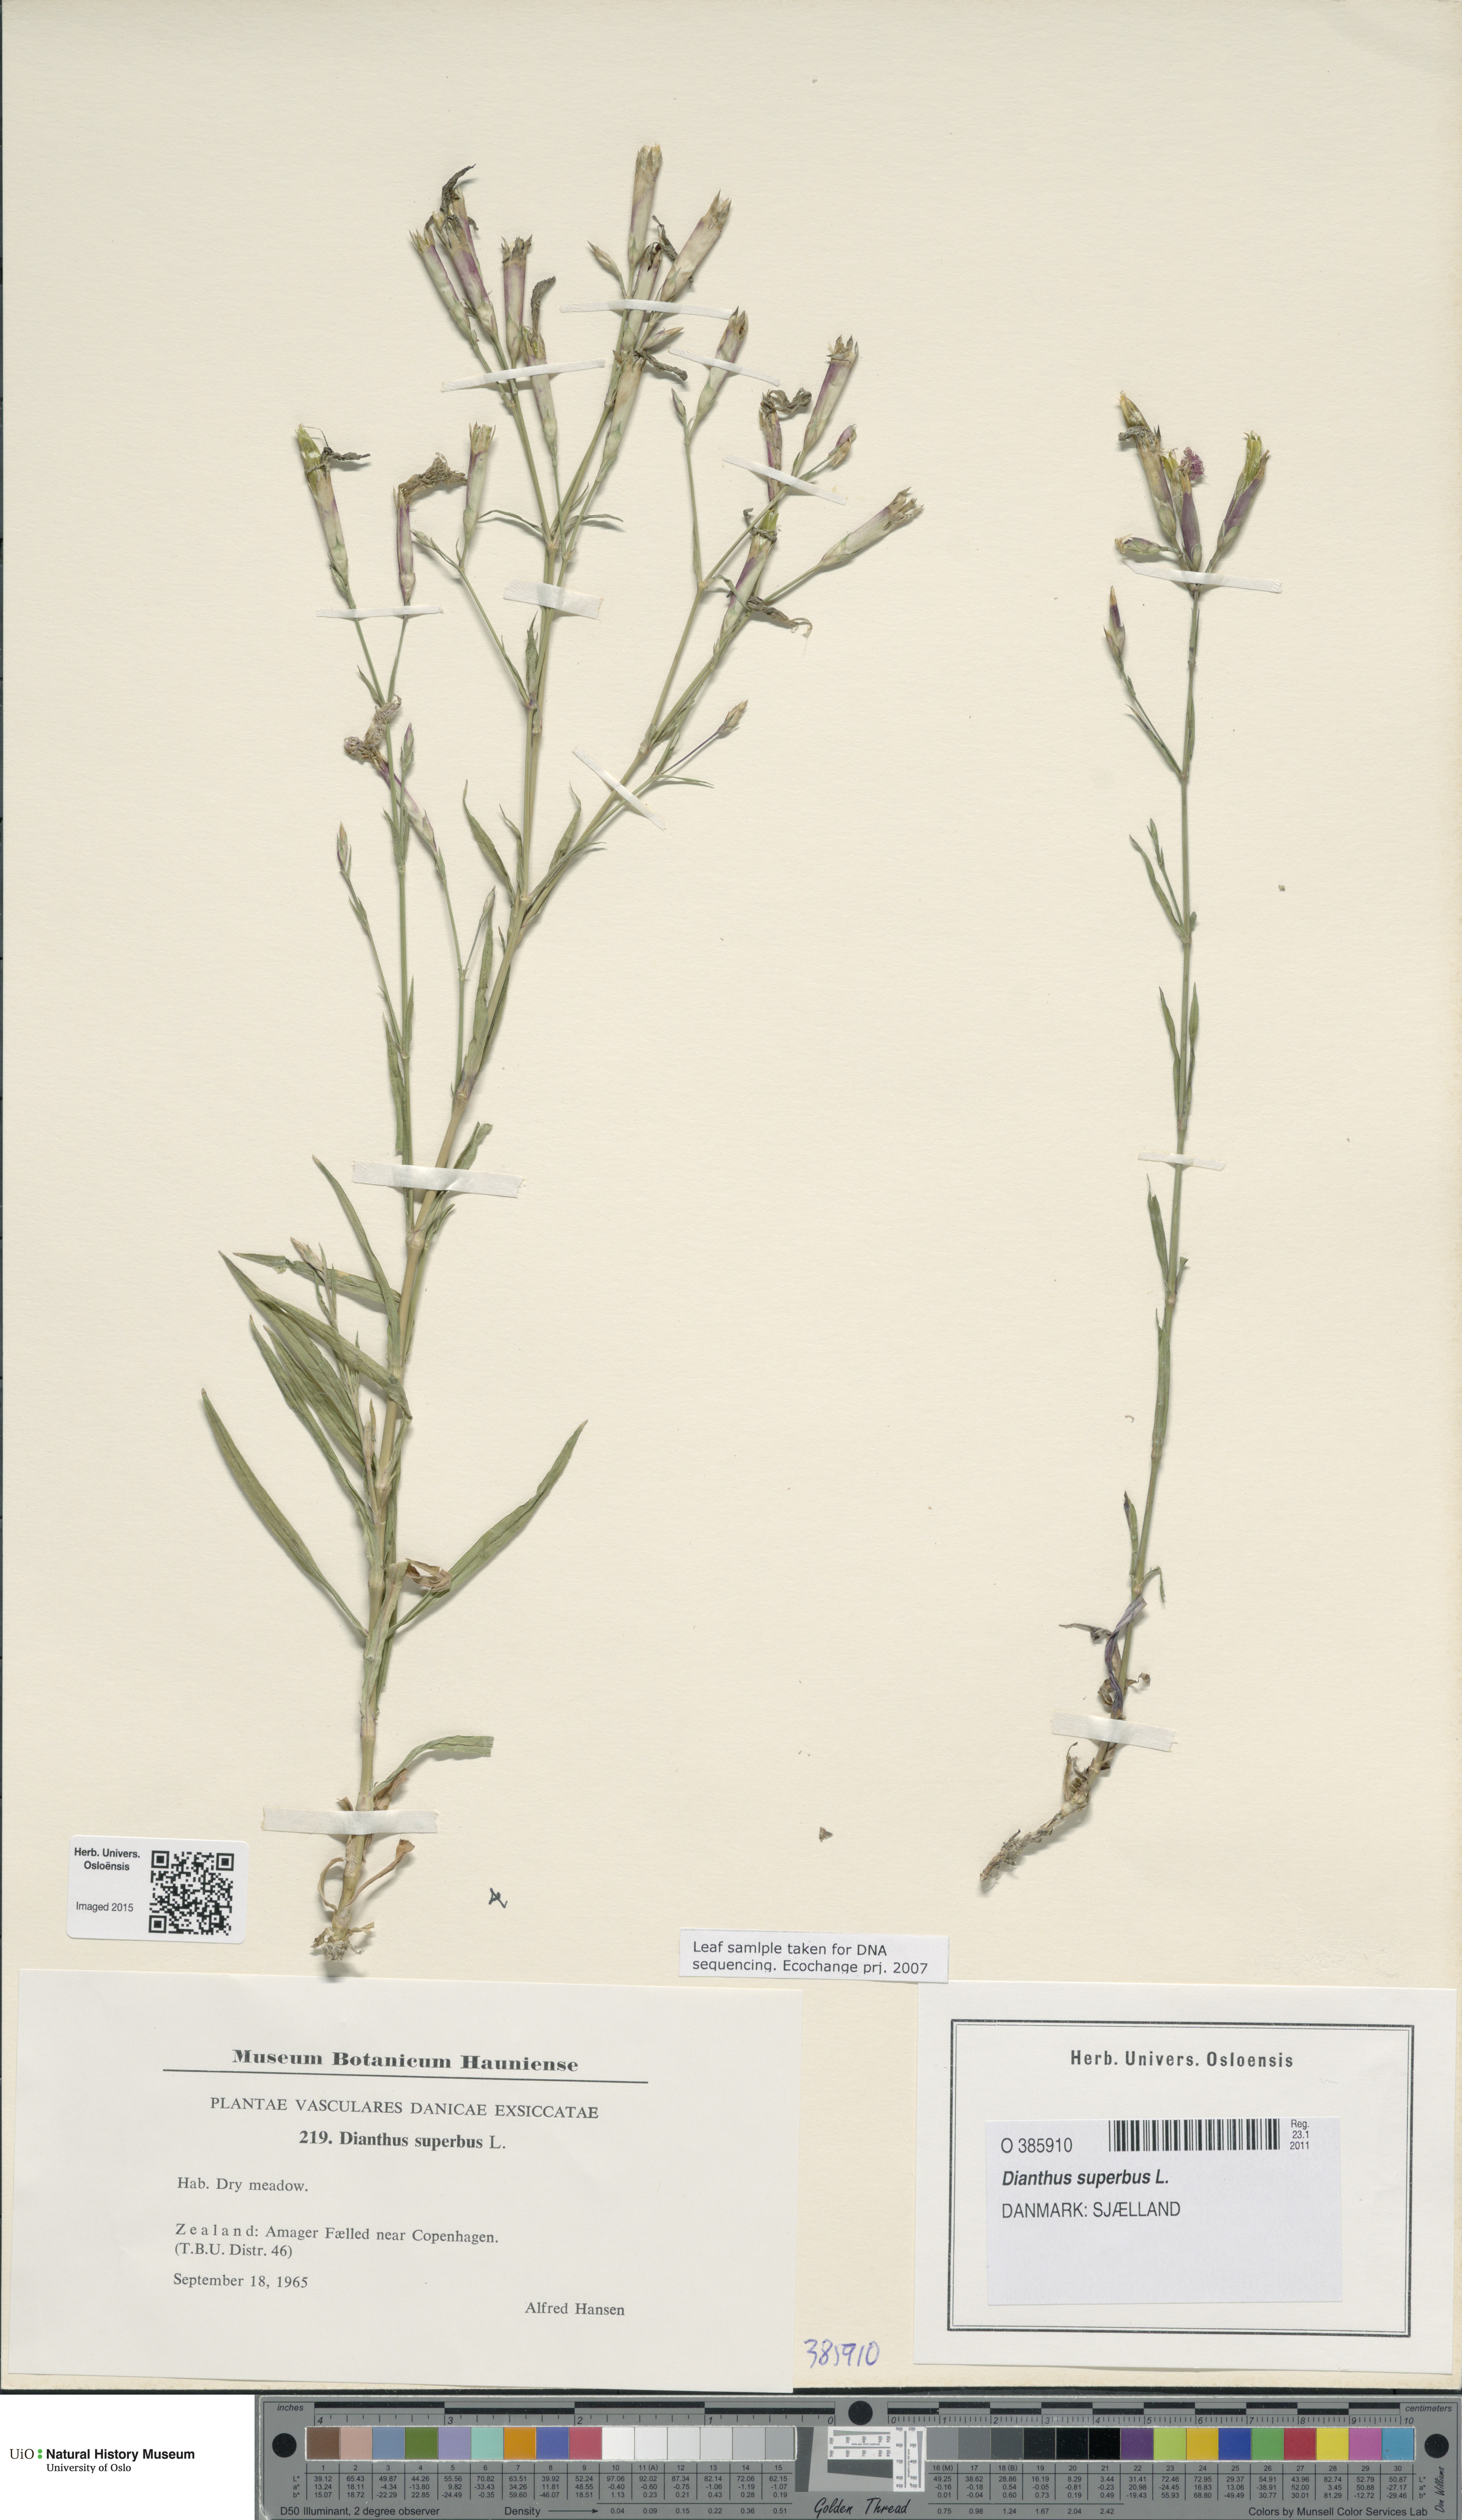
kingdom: Plantae
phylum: Tracheophyta
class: Magnoliopsida
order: Caryophyllales
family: Caryophyllaceae
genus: Dianthus
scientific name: Dianthus superbus
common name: Fringed pink
